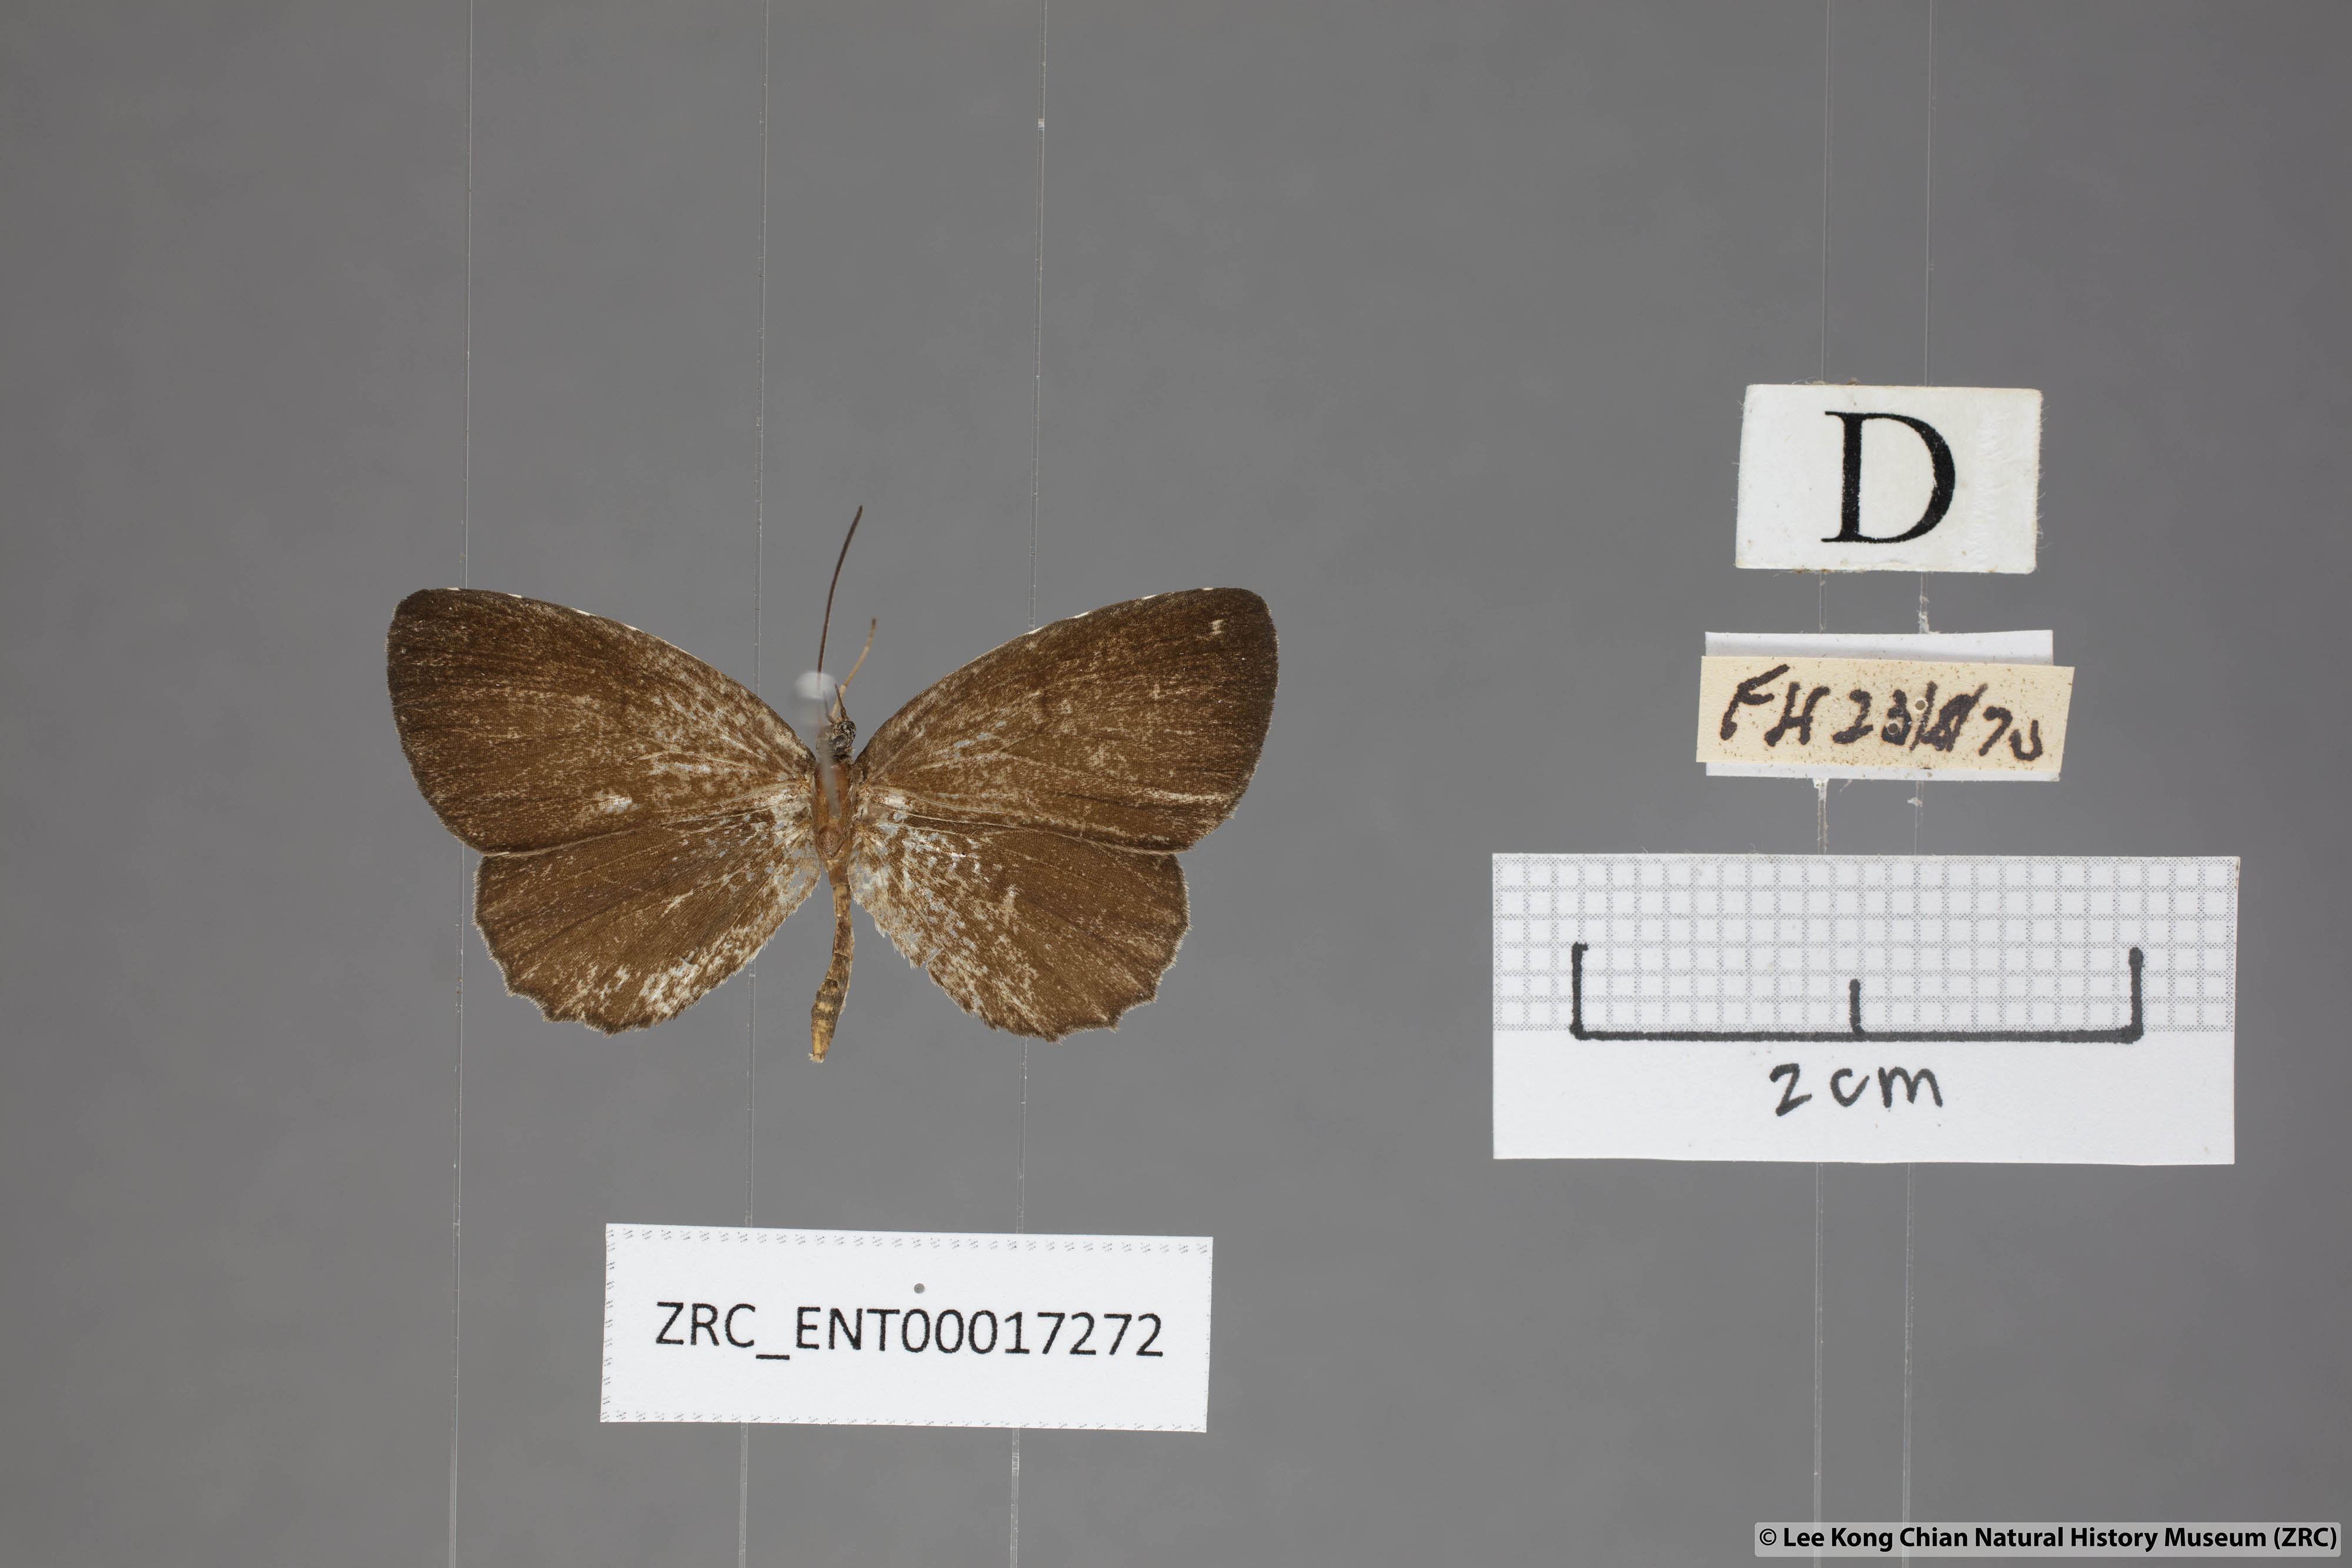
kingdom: Animalia
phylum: Arthropoda
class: Insecta
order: Lepidoptera
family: Lycaenidae
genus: Allotinus
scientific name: Allotinus portunus
